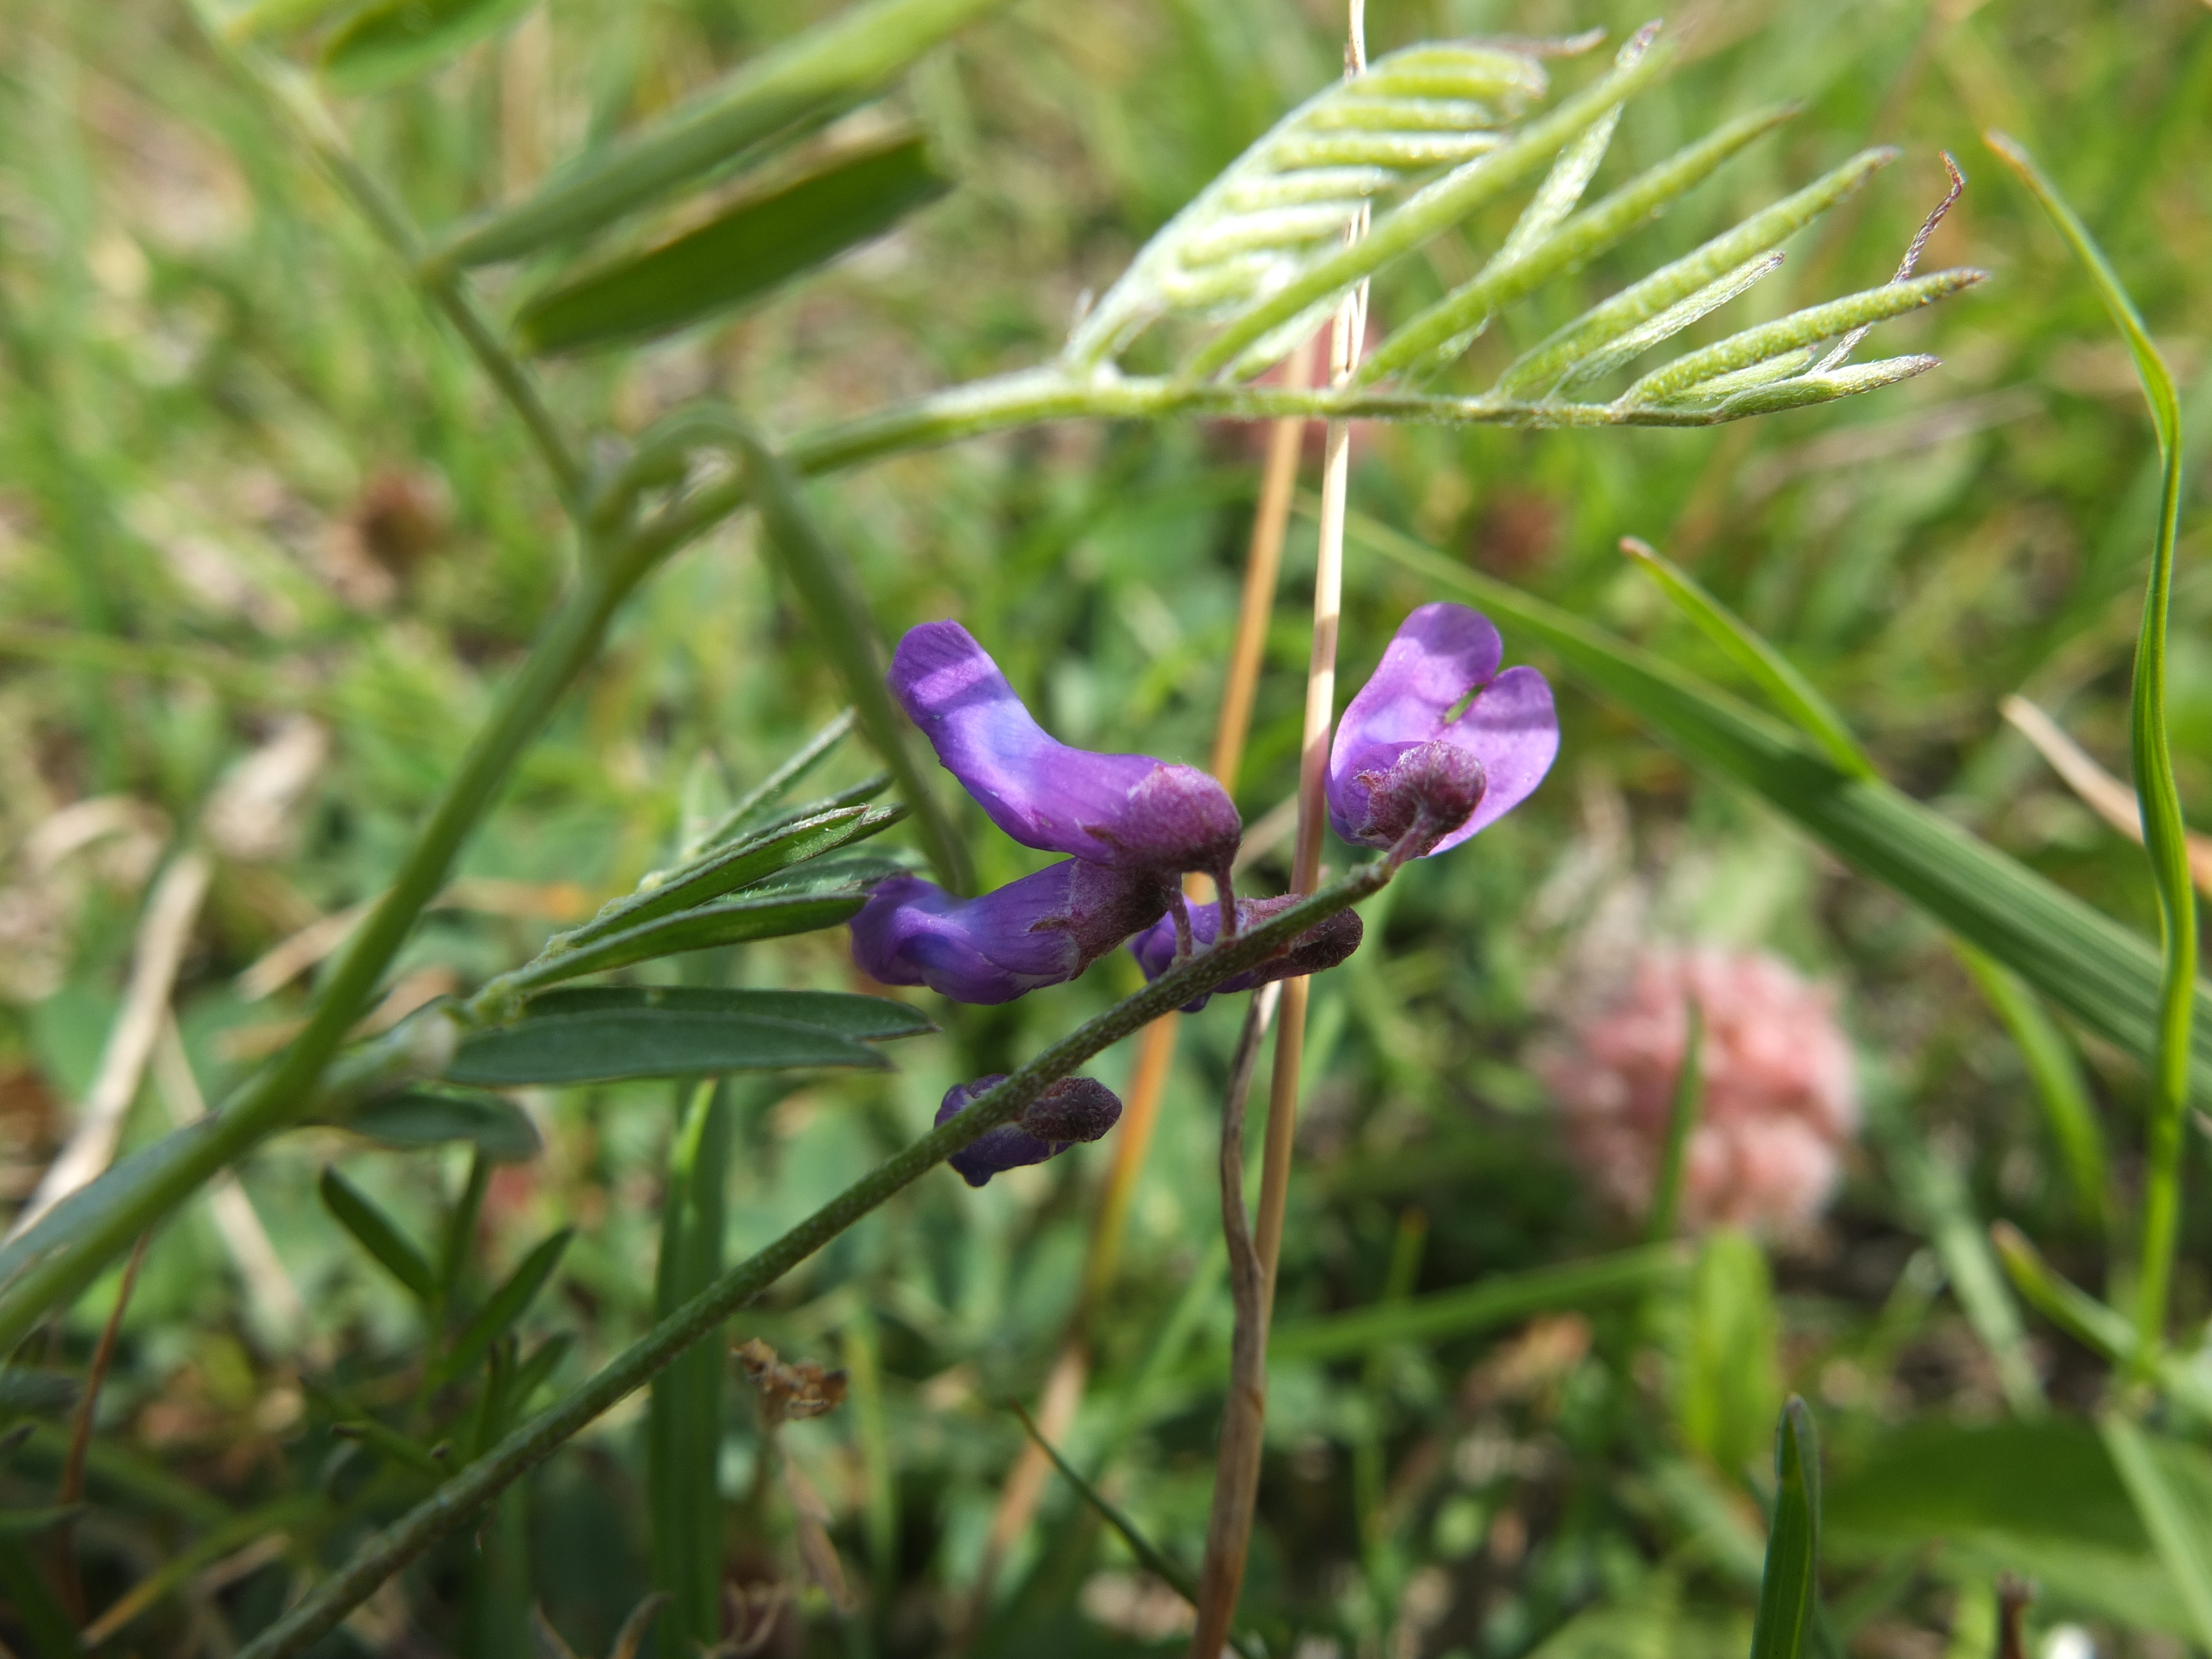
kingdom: Plantae
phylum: Tracheophyta
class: Magnoliopsida
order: Fabales
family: Fabaceae
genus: Vicia
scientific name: Vicia cracca
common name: Muse-vikke
